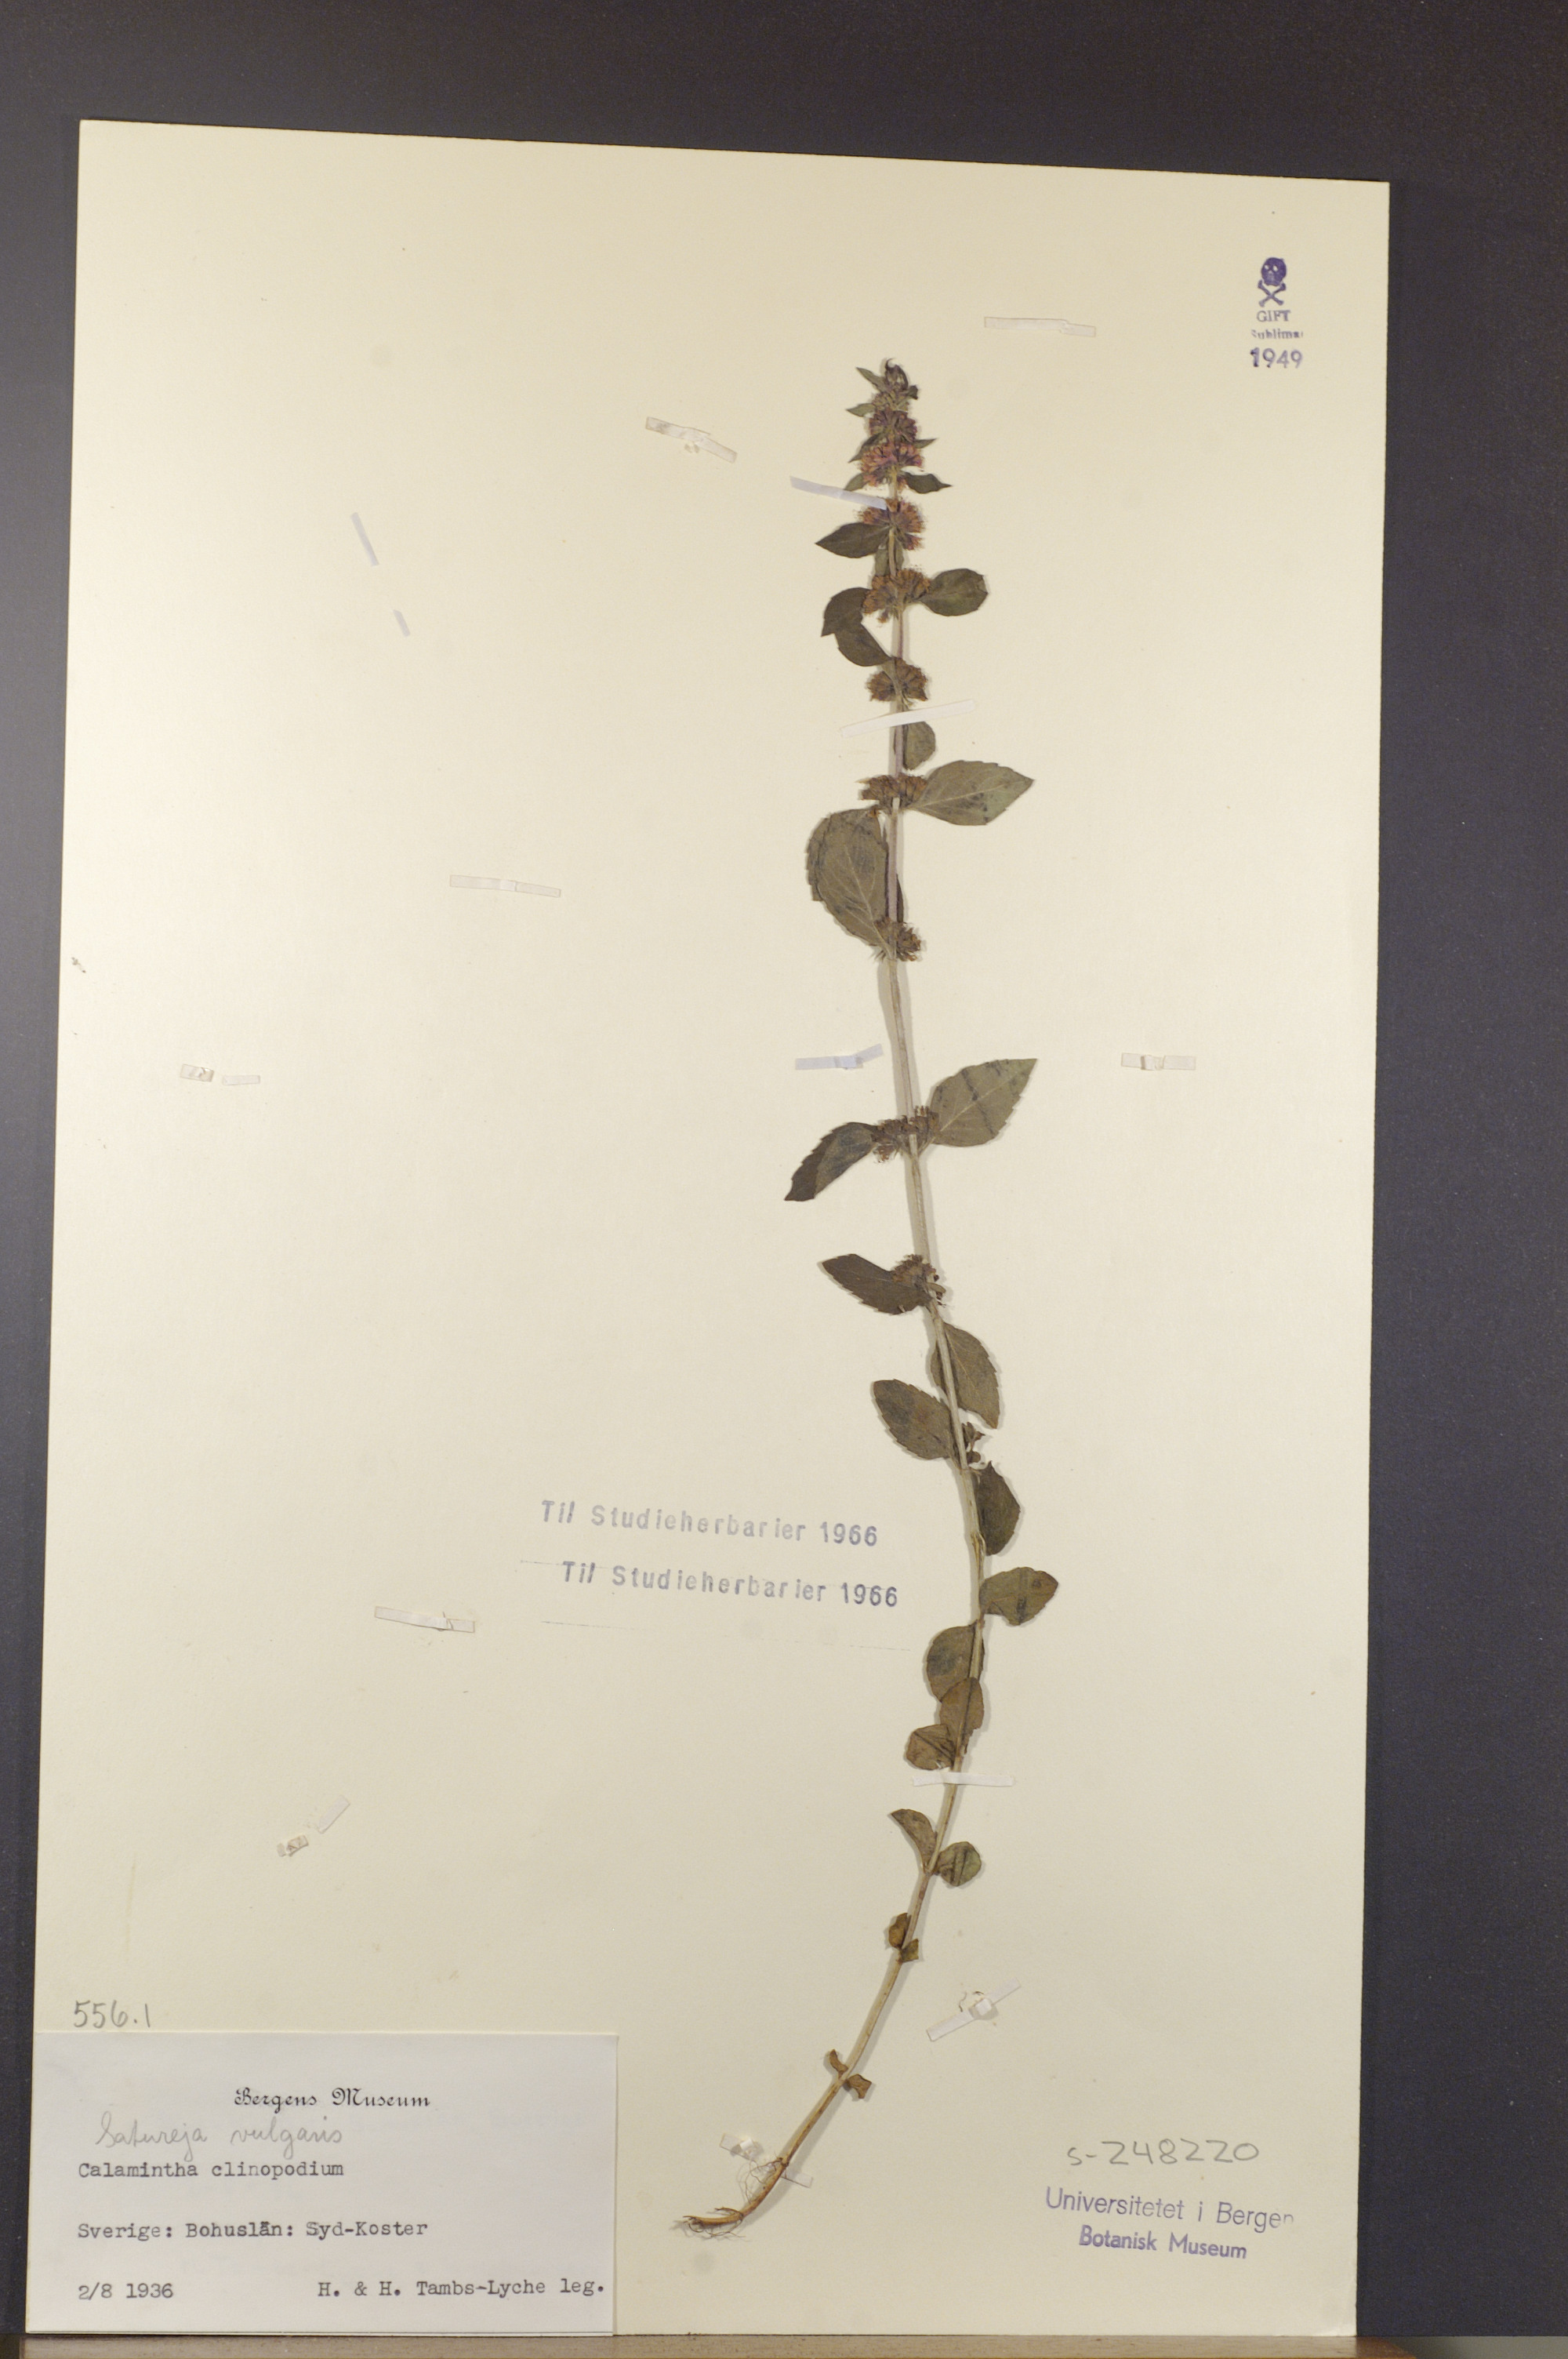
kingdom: Plantae
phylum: Tracheophyta
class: Magnoliopsida
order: Lamiales
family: Lamiaceae
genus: Clinopodium
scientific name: Clinopodium vulgare
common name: Wild basil
